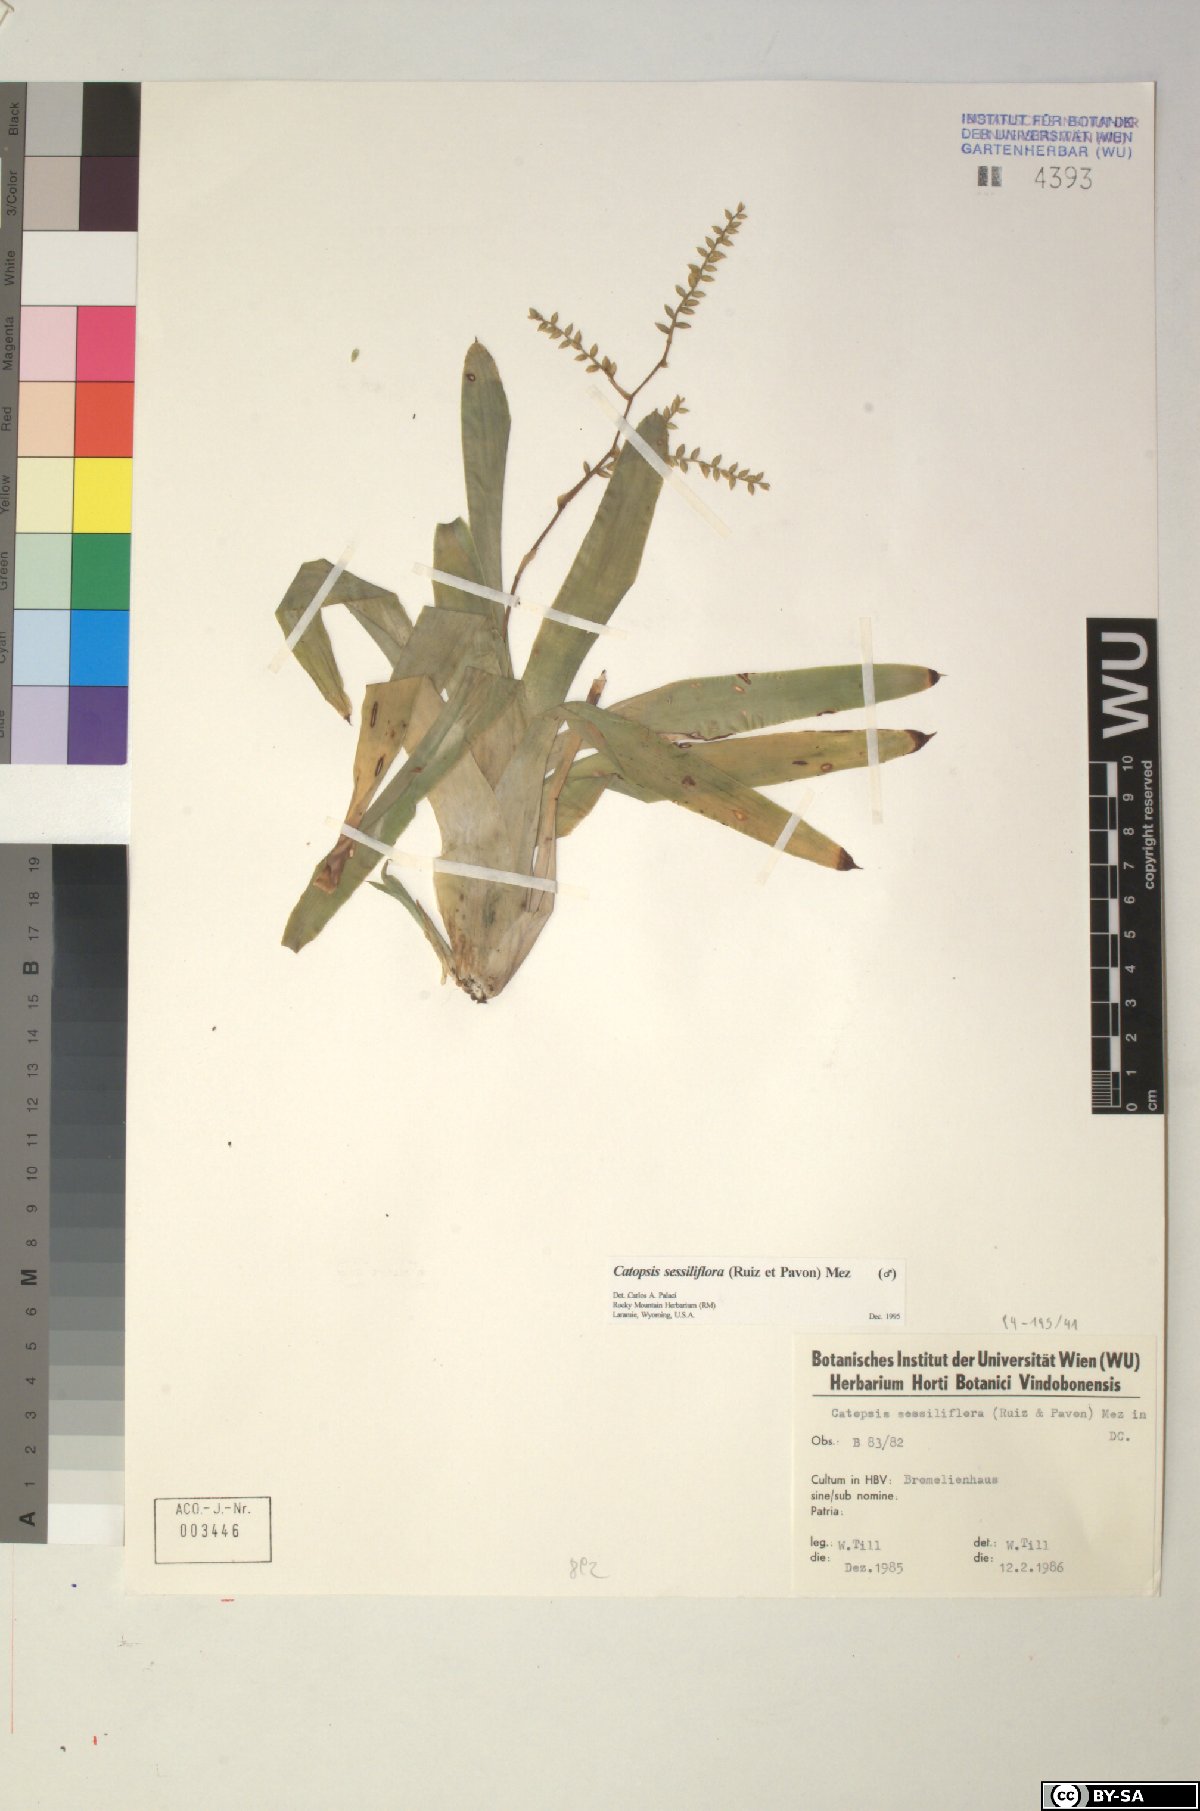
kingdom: Plantae
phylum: Tracheophyta
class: Liliopsida
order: Poales
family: Bromeliaceae
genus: Catopsis
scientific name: Catopsis sessiliflora
